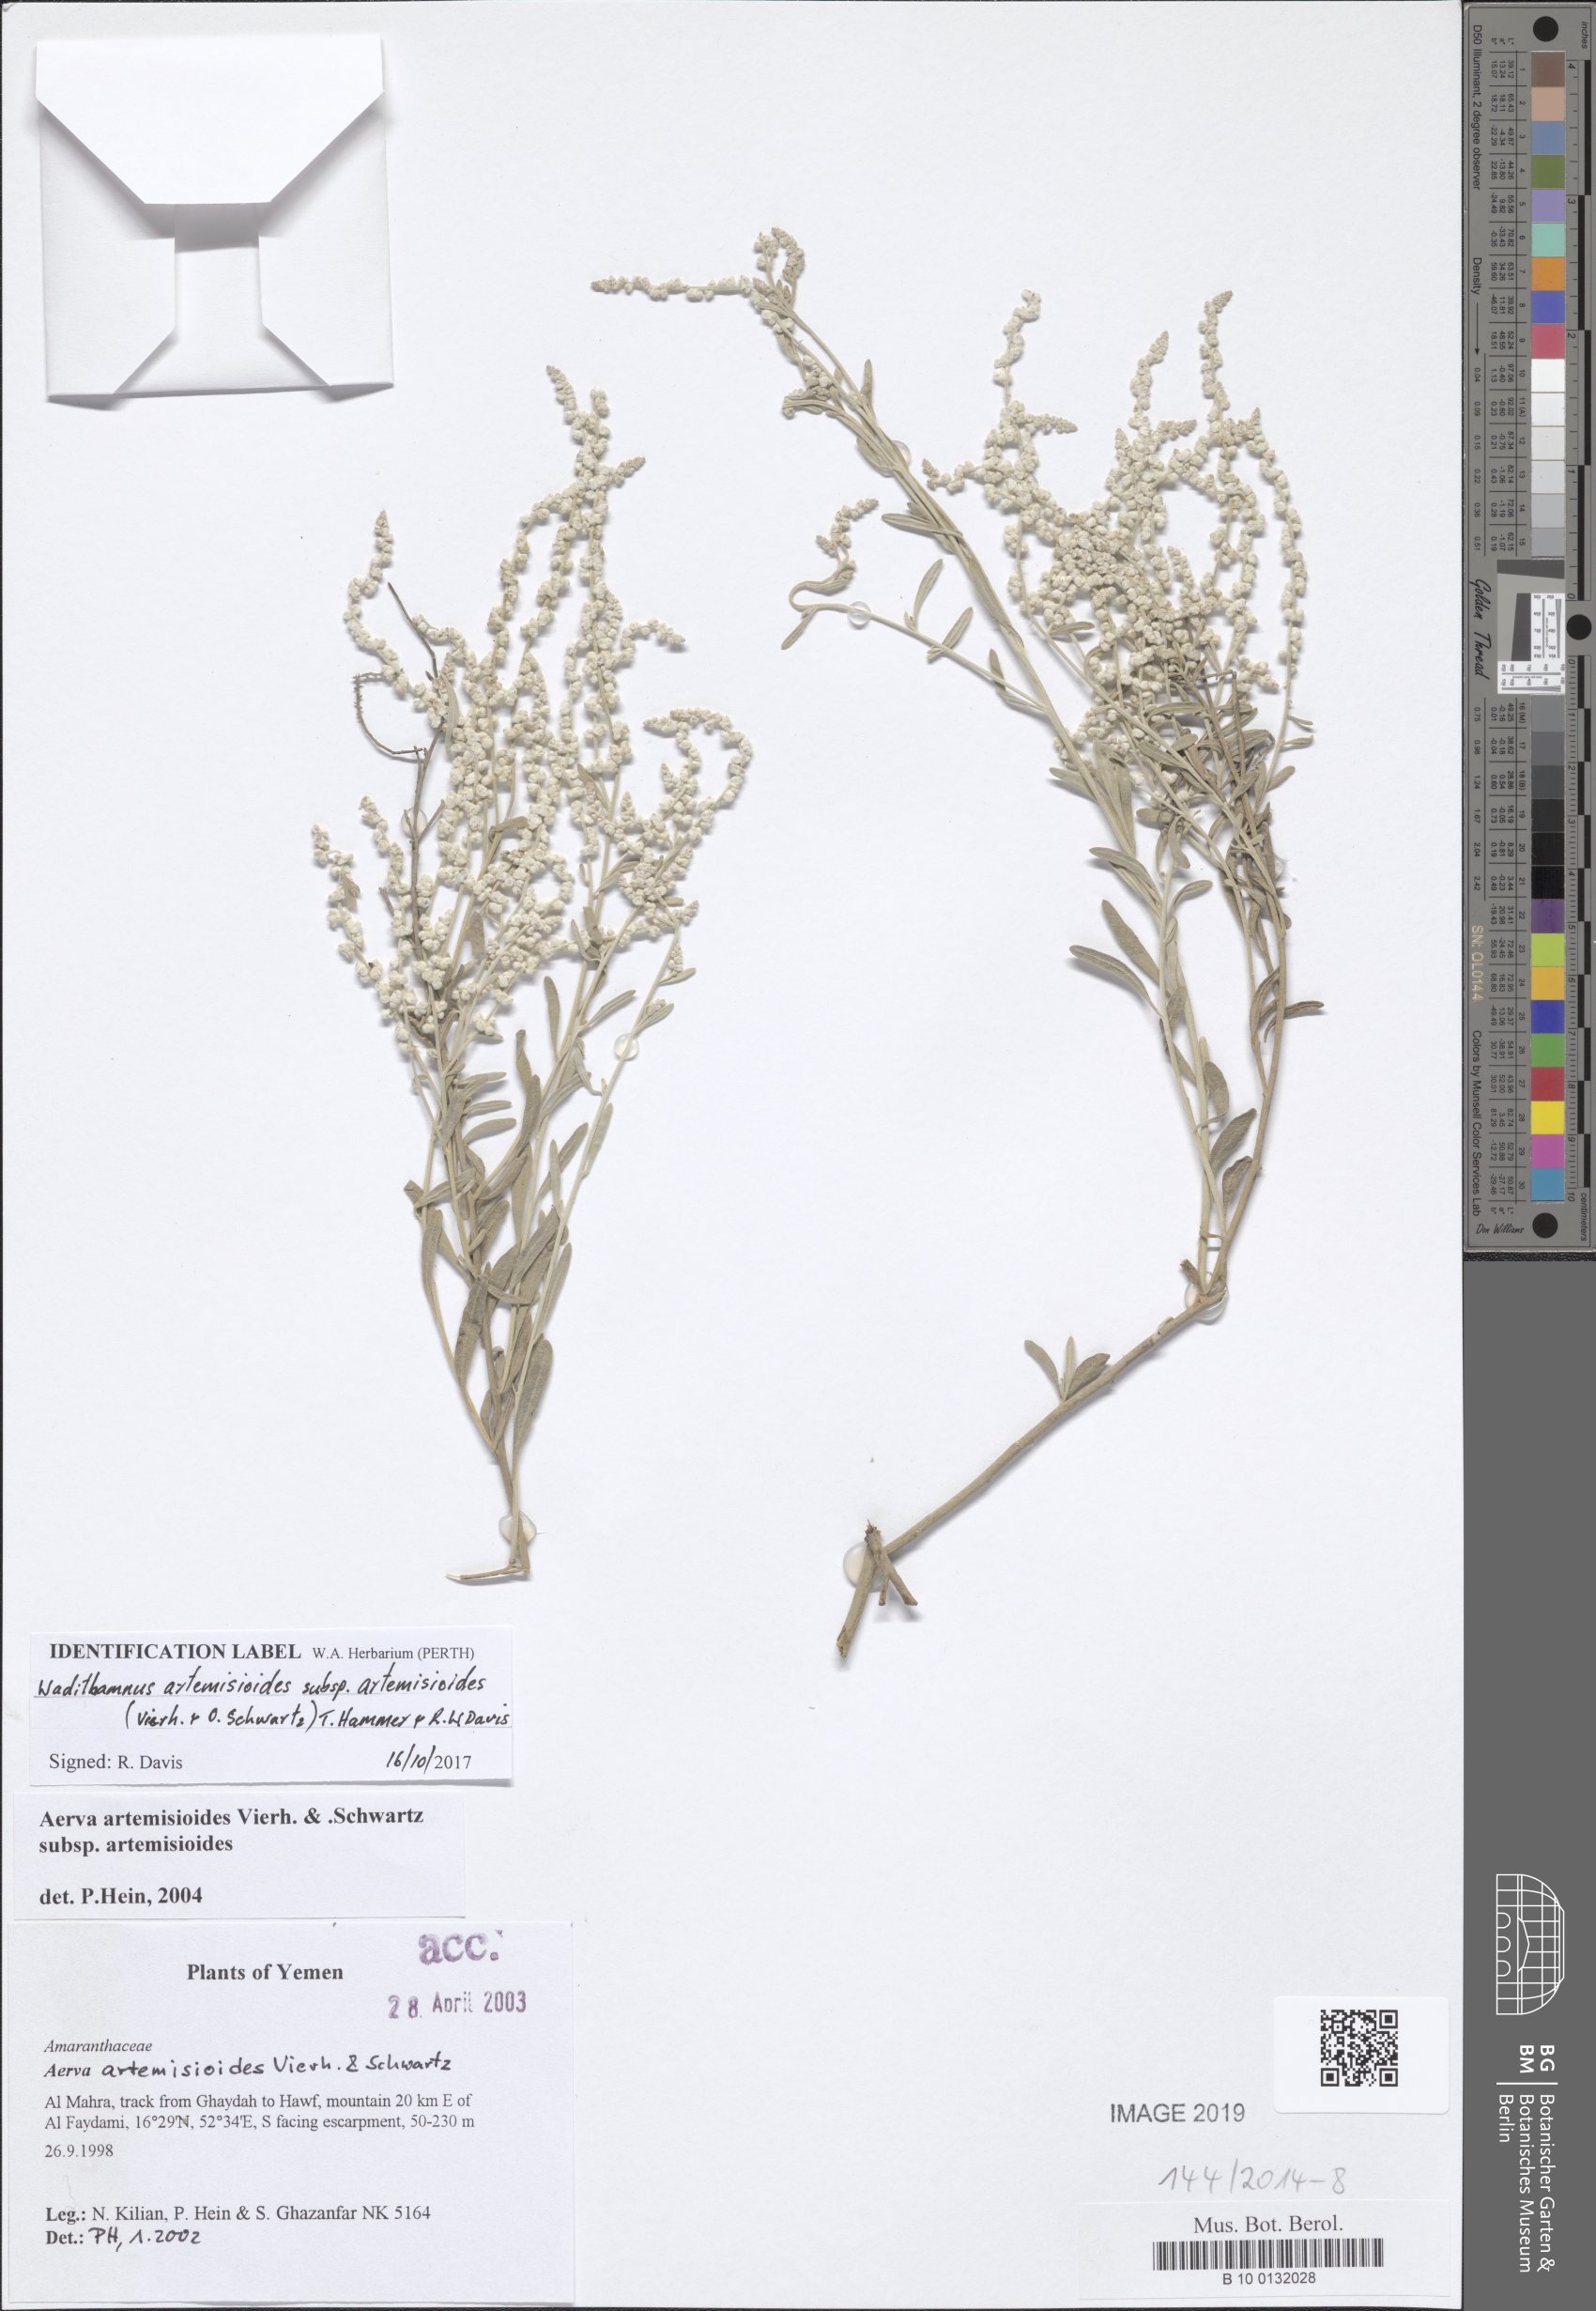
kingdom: Plantae
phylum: Tracheophyta
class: Magnoliopsida
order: Caryophyllales
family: Amaranthaceae
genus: Wadithamnus
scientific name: Wadithamnus artemisioides
